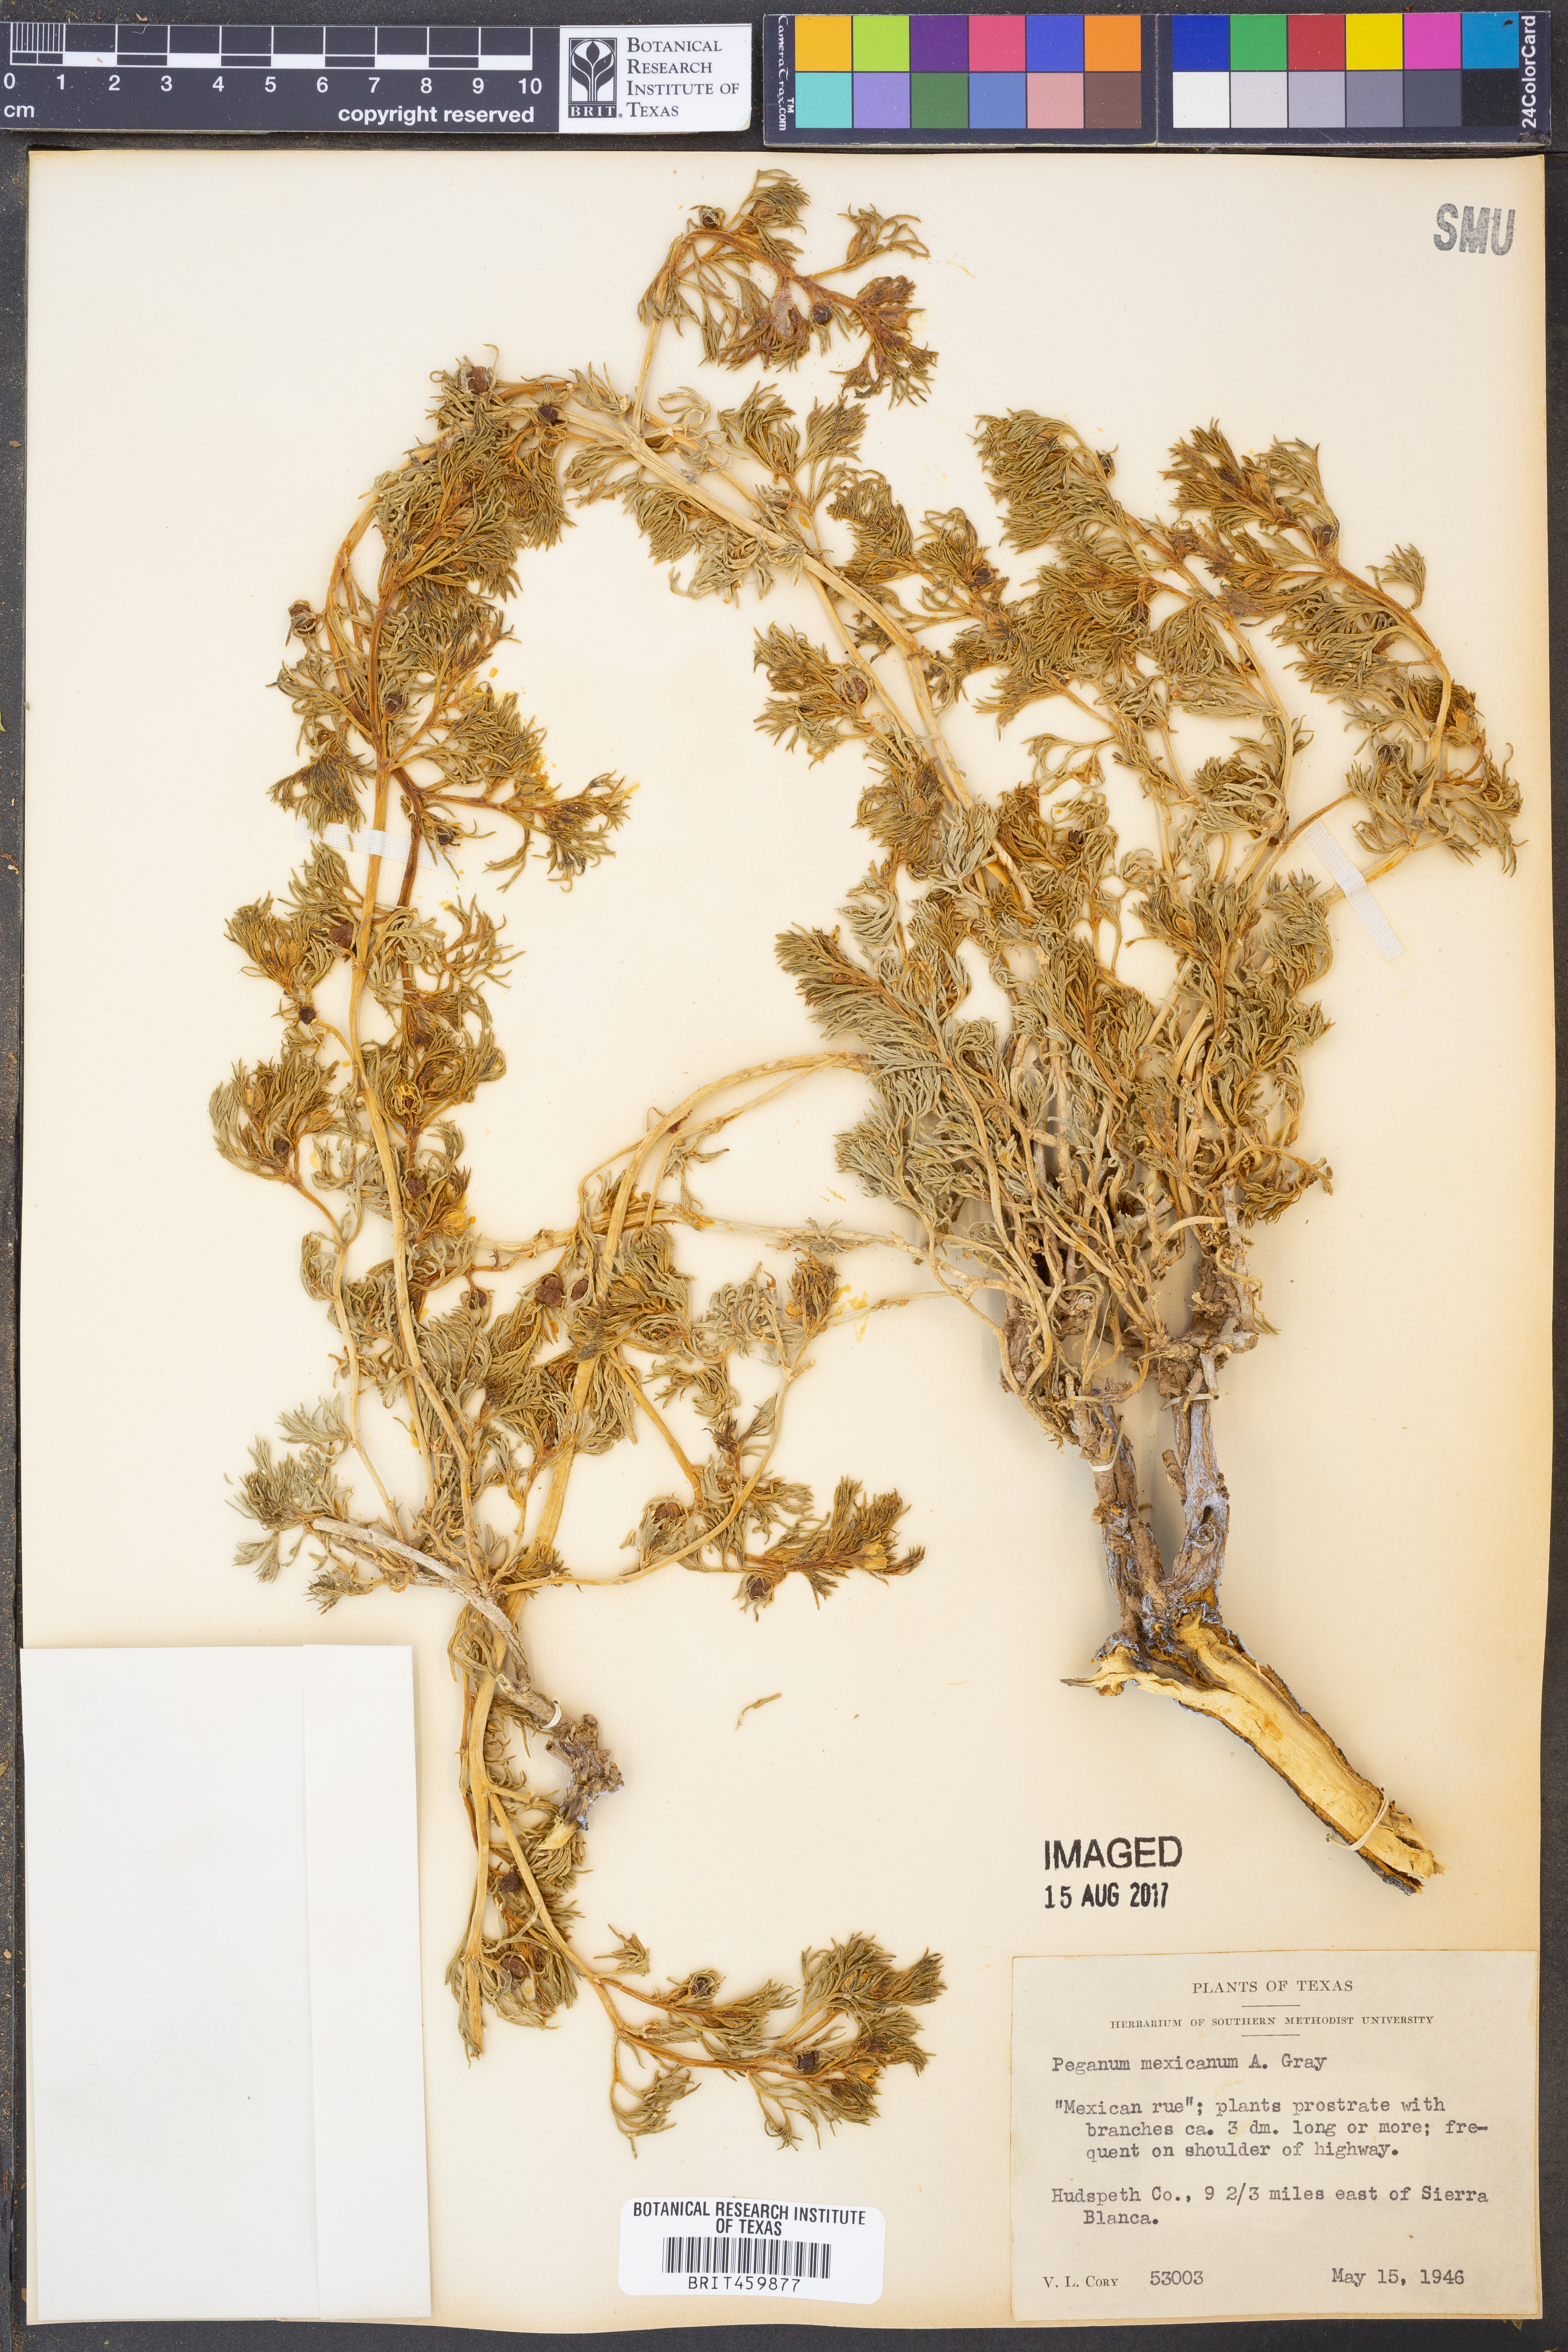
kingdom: Plantae
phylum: Tracheophyta
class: Magnoliopsida
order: Sapindales
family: Tetradiclidaceae
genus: Peganum
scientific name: Peganum mexicanum
